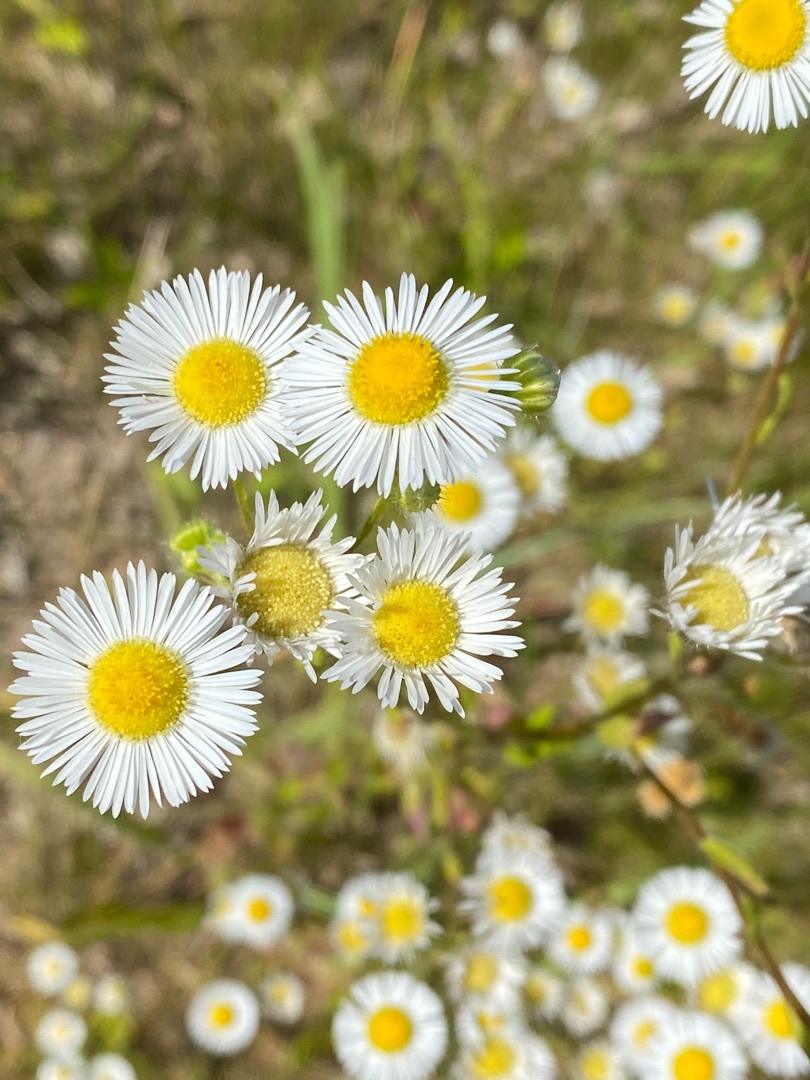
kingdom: Plantae
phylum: Tracheophyta
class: Magnoliopsida
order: Asterales
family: Asteraceae
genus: Erigeron
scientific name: Erigeron annuus
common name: Smalstråle
